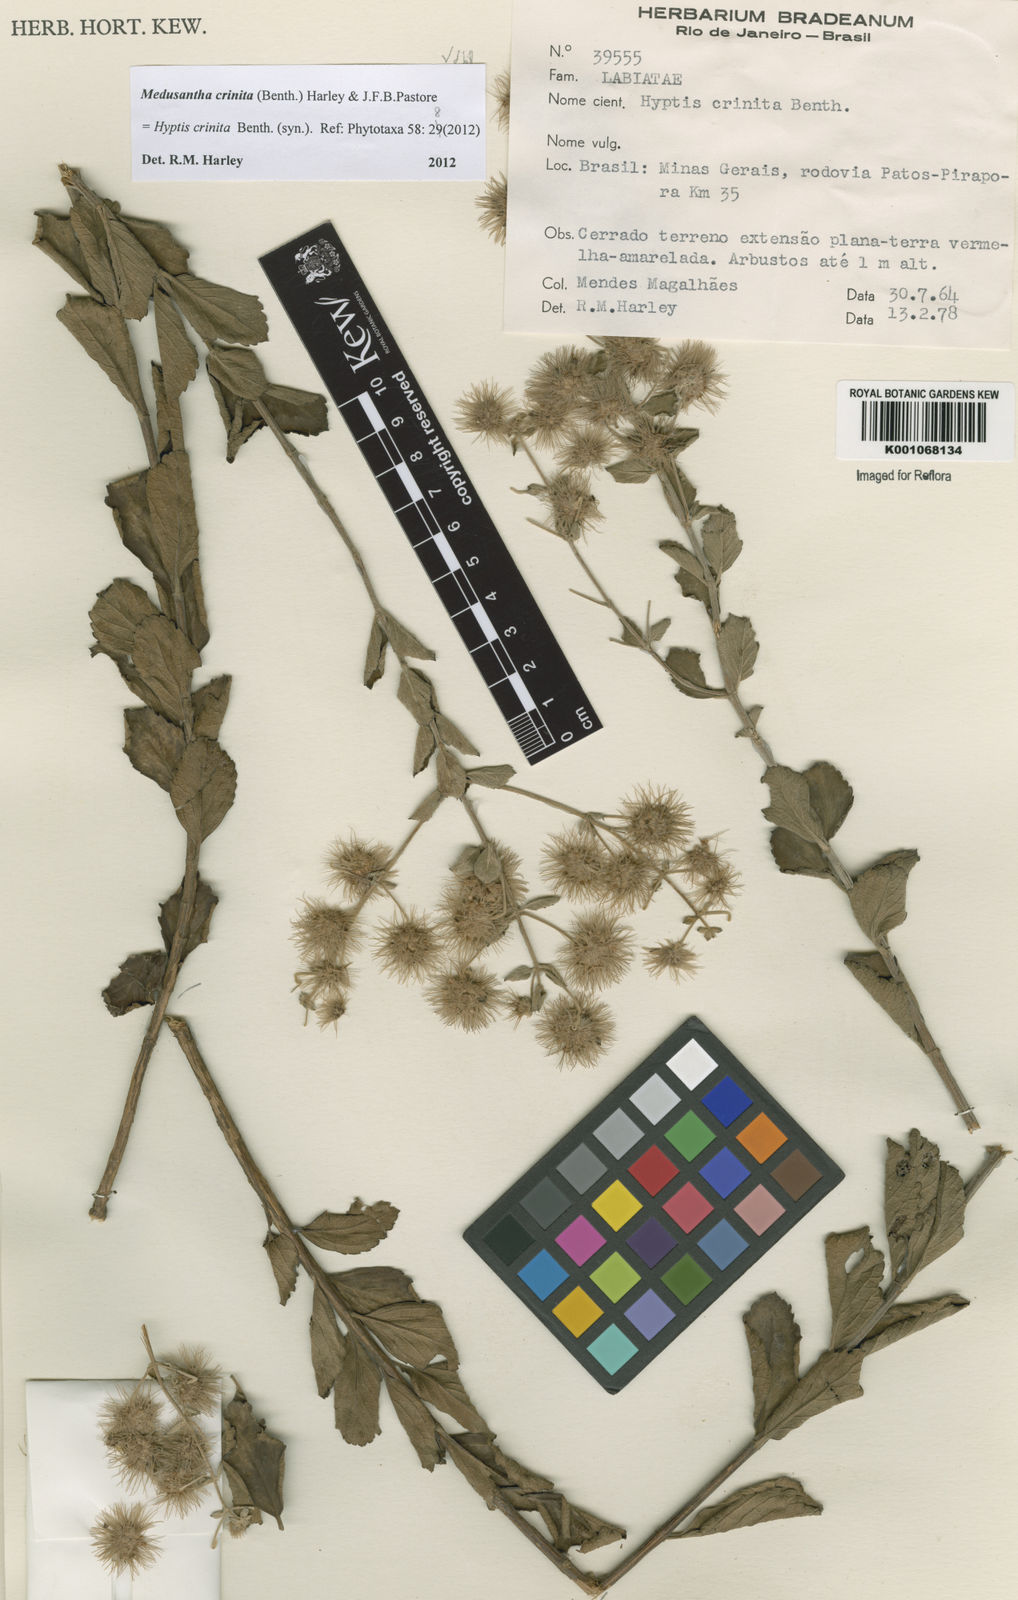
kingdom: Plantae
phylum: Tracheophyta
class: Magnoliopsida
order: Lamiales
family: Lamiaceae
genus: Medusantha
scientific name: Medusantha crinita
